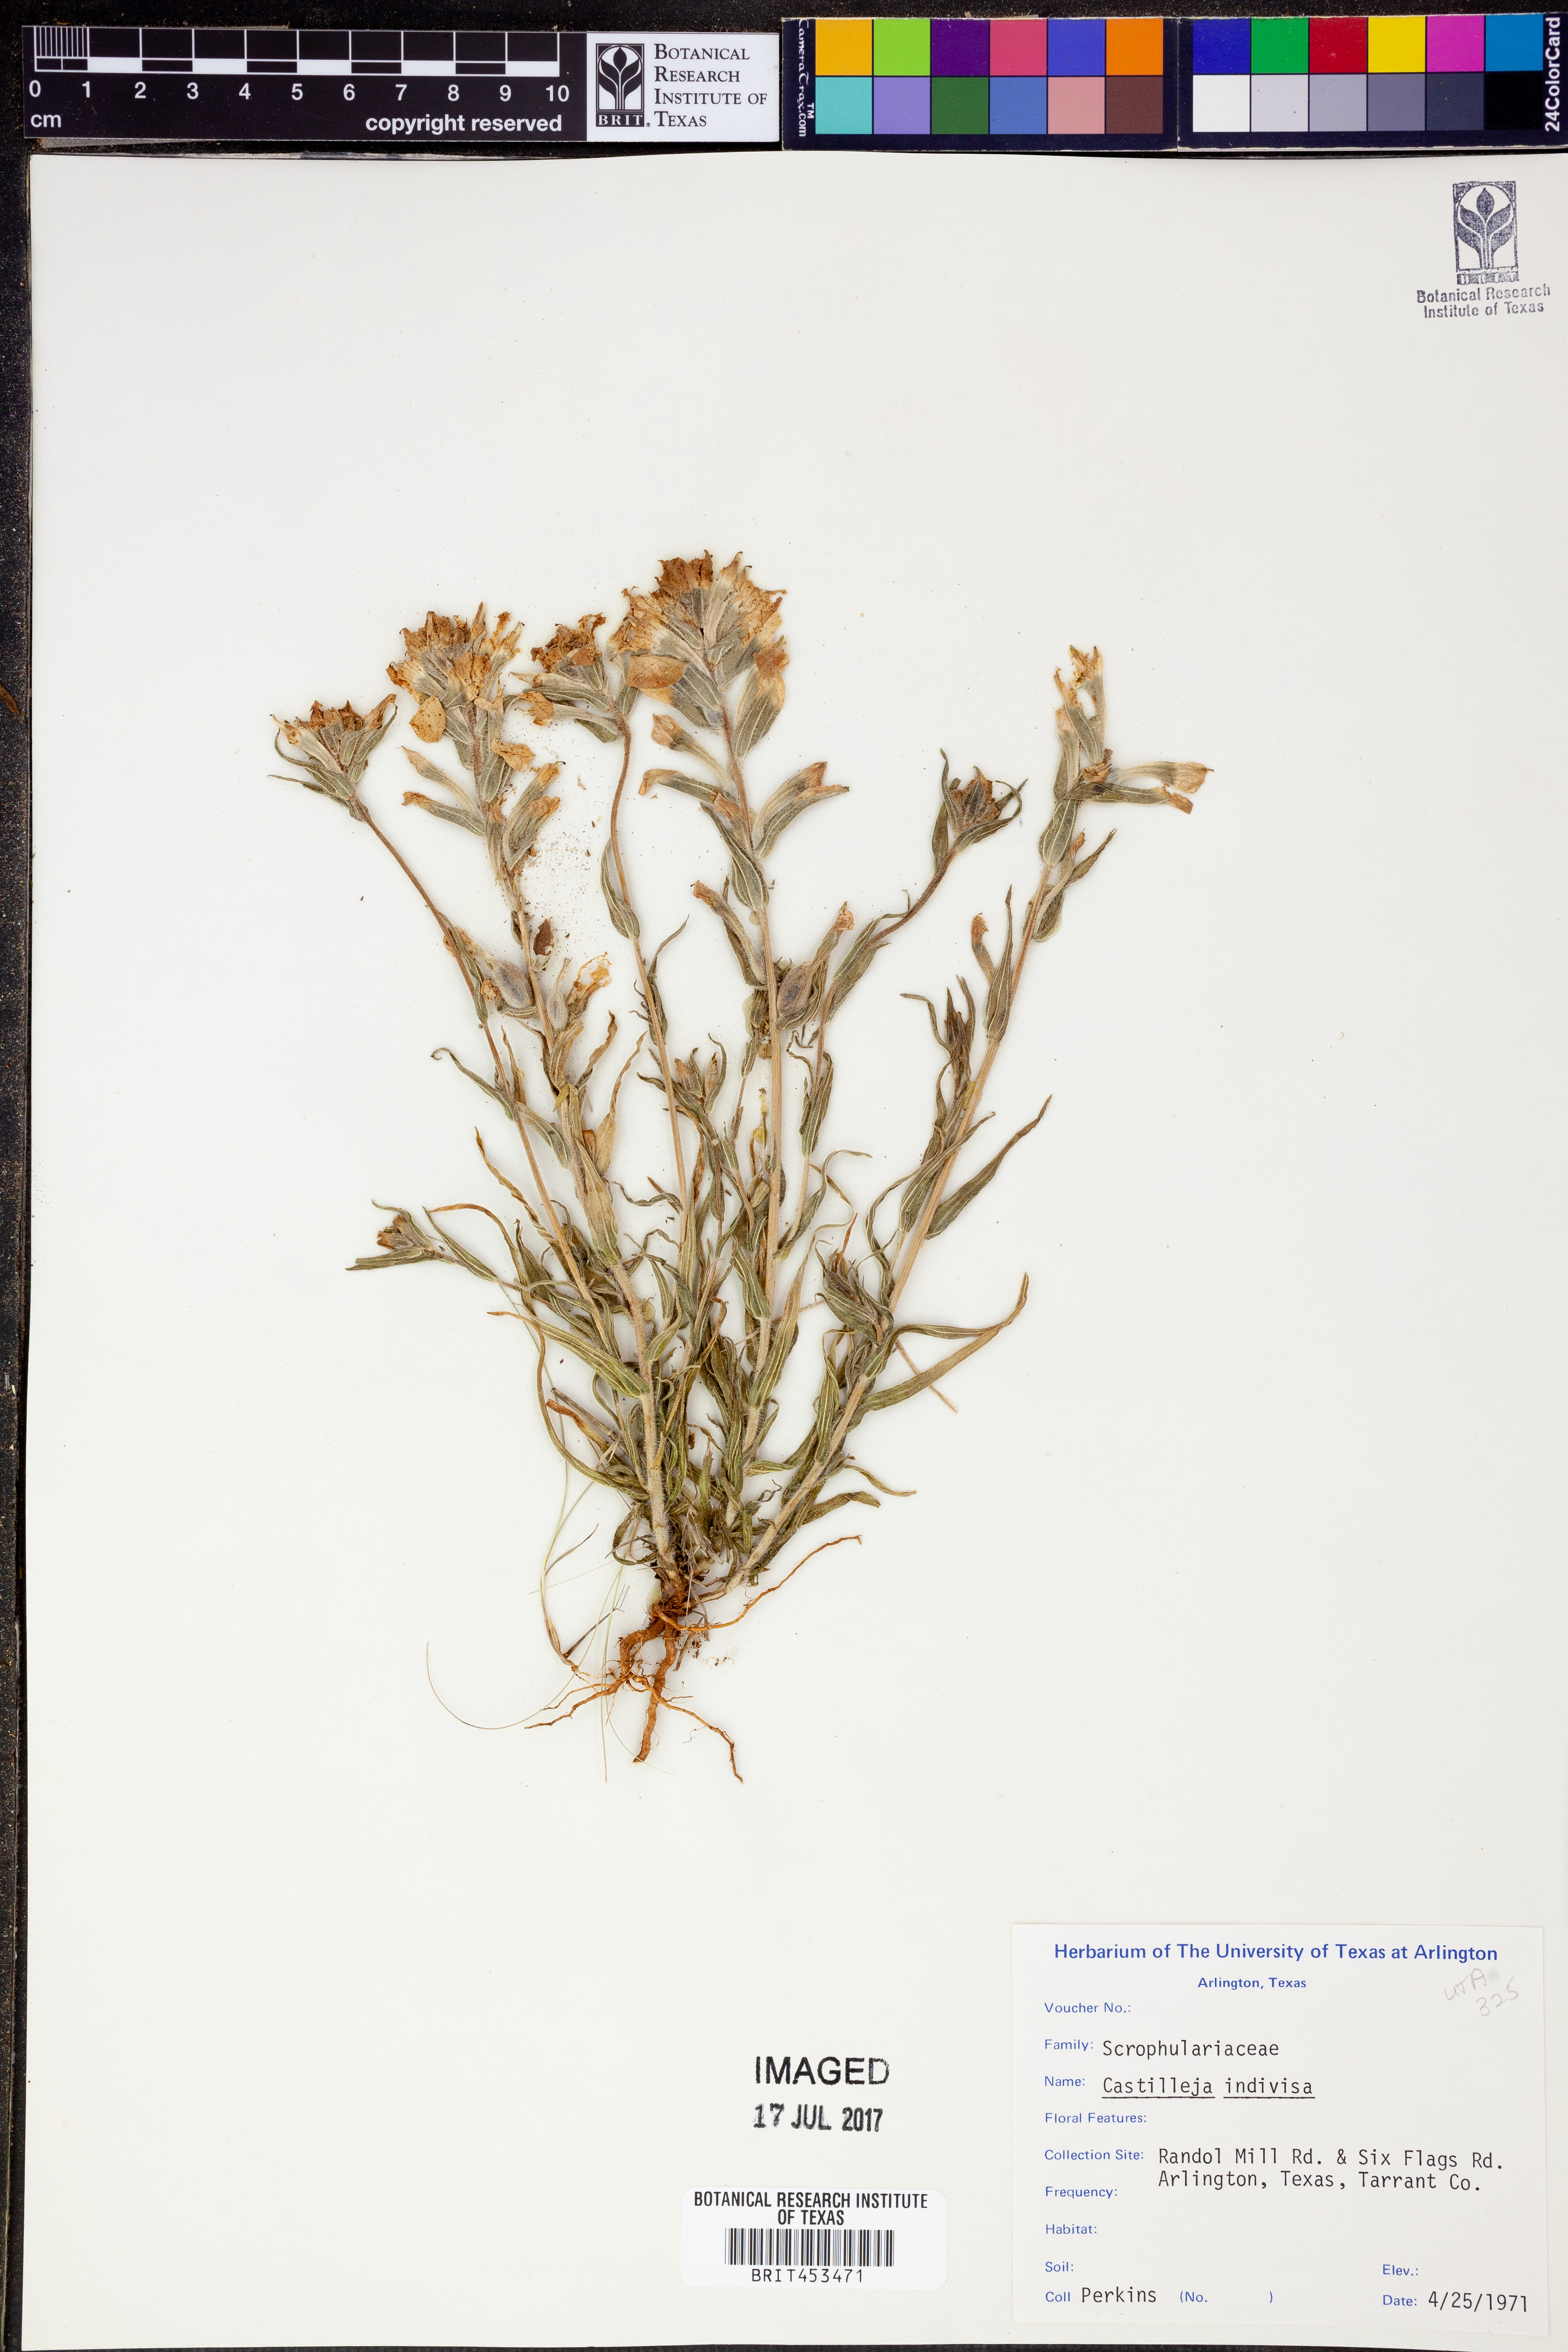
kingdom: Plantae
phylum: Tracheophyta
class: Magnoliopsida
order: Lamiales
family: Orobanchaceae
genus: Castilleja
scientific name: Castilleja indivisa
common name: Texas paintbrush
